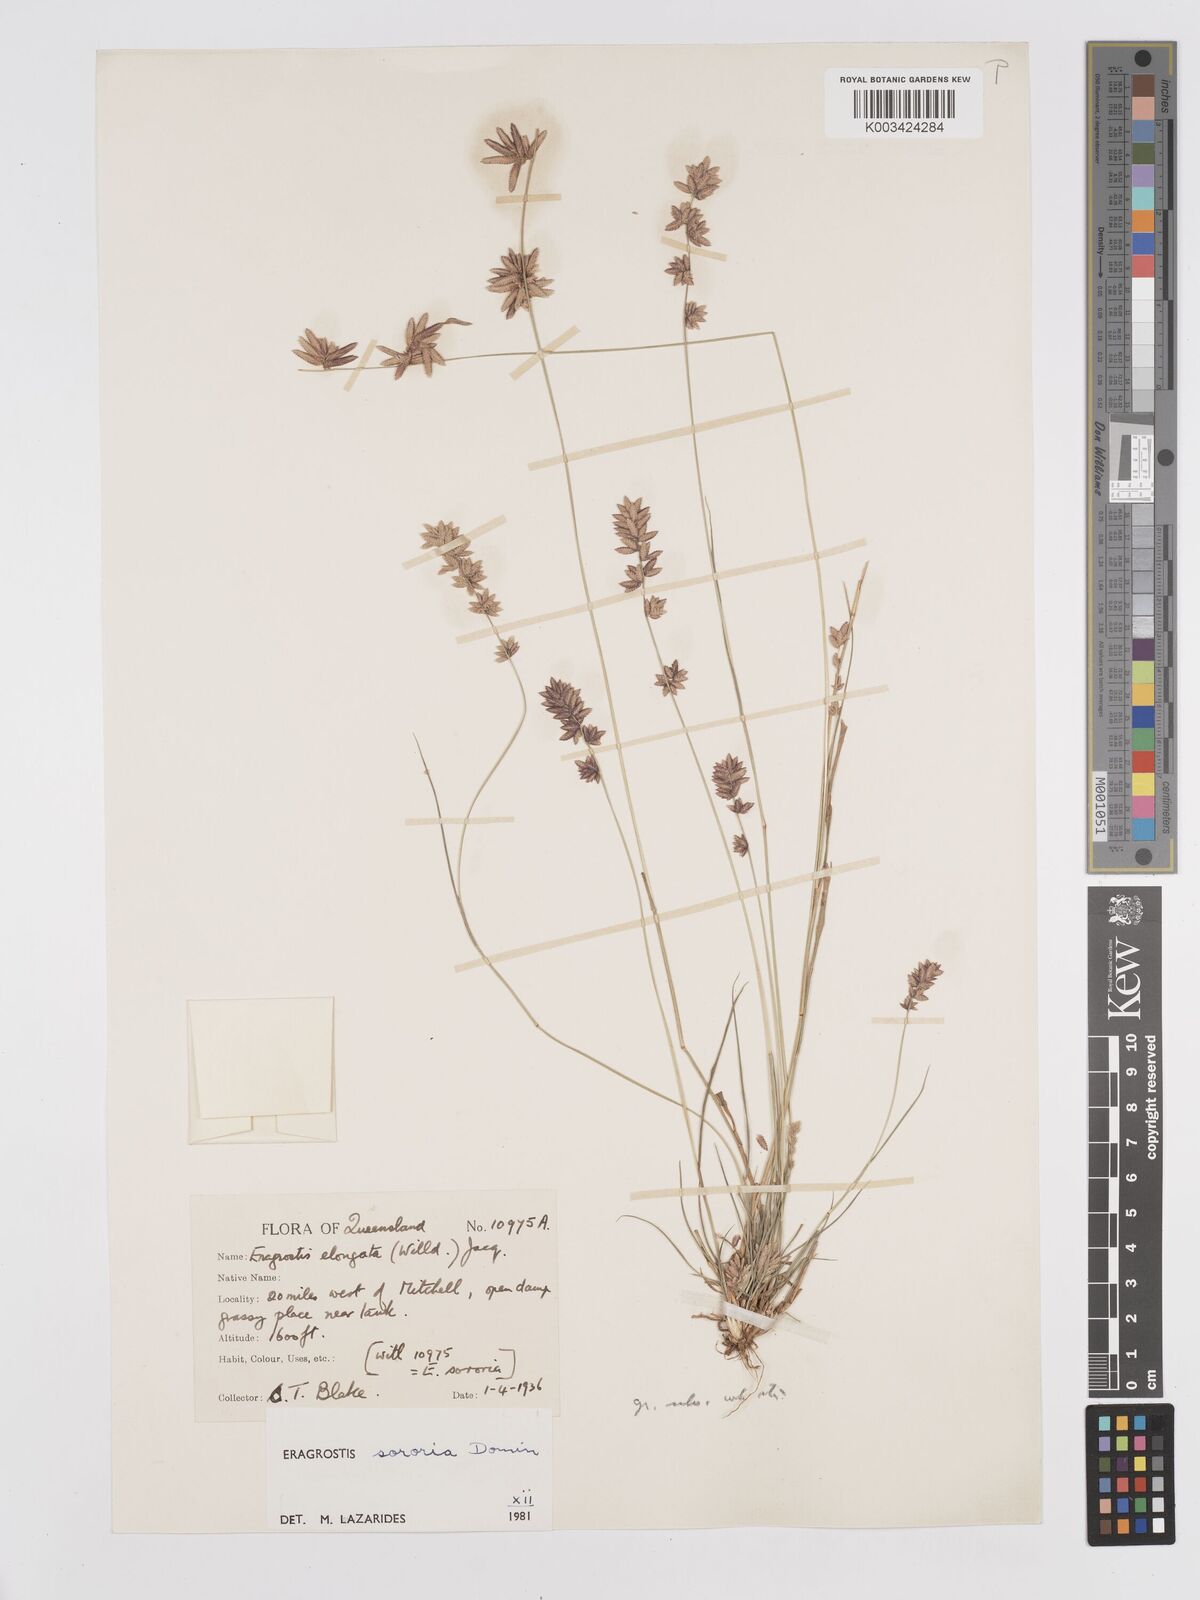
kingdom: Plantae
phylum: Tracheophyta
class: Liliopsida
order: Poales
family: Poaceae
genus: Eragrostis
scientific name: Eragrostis sororia
